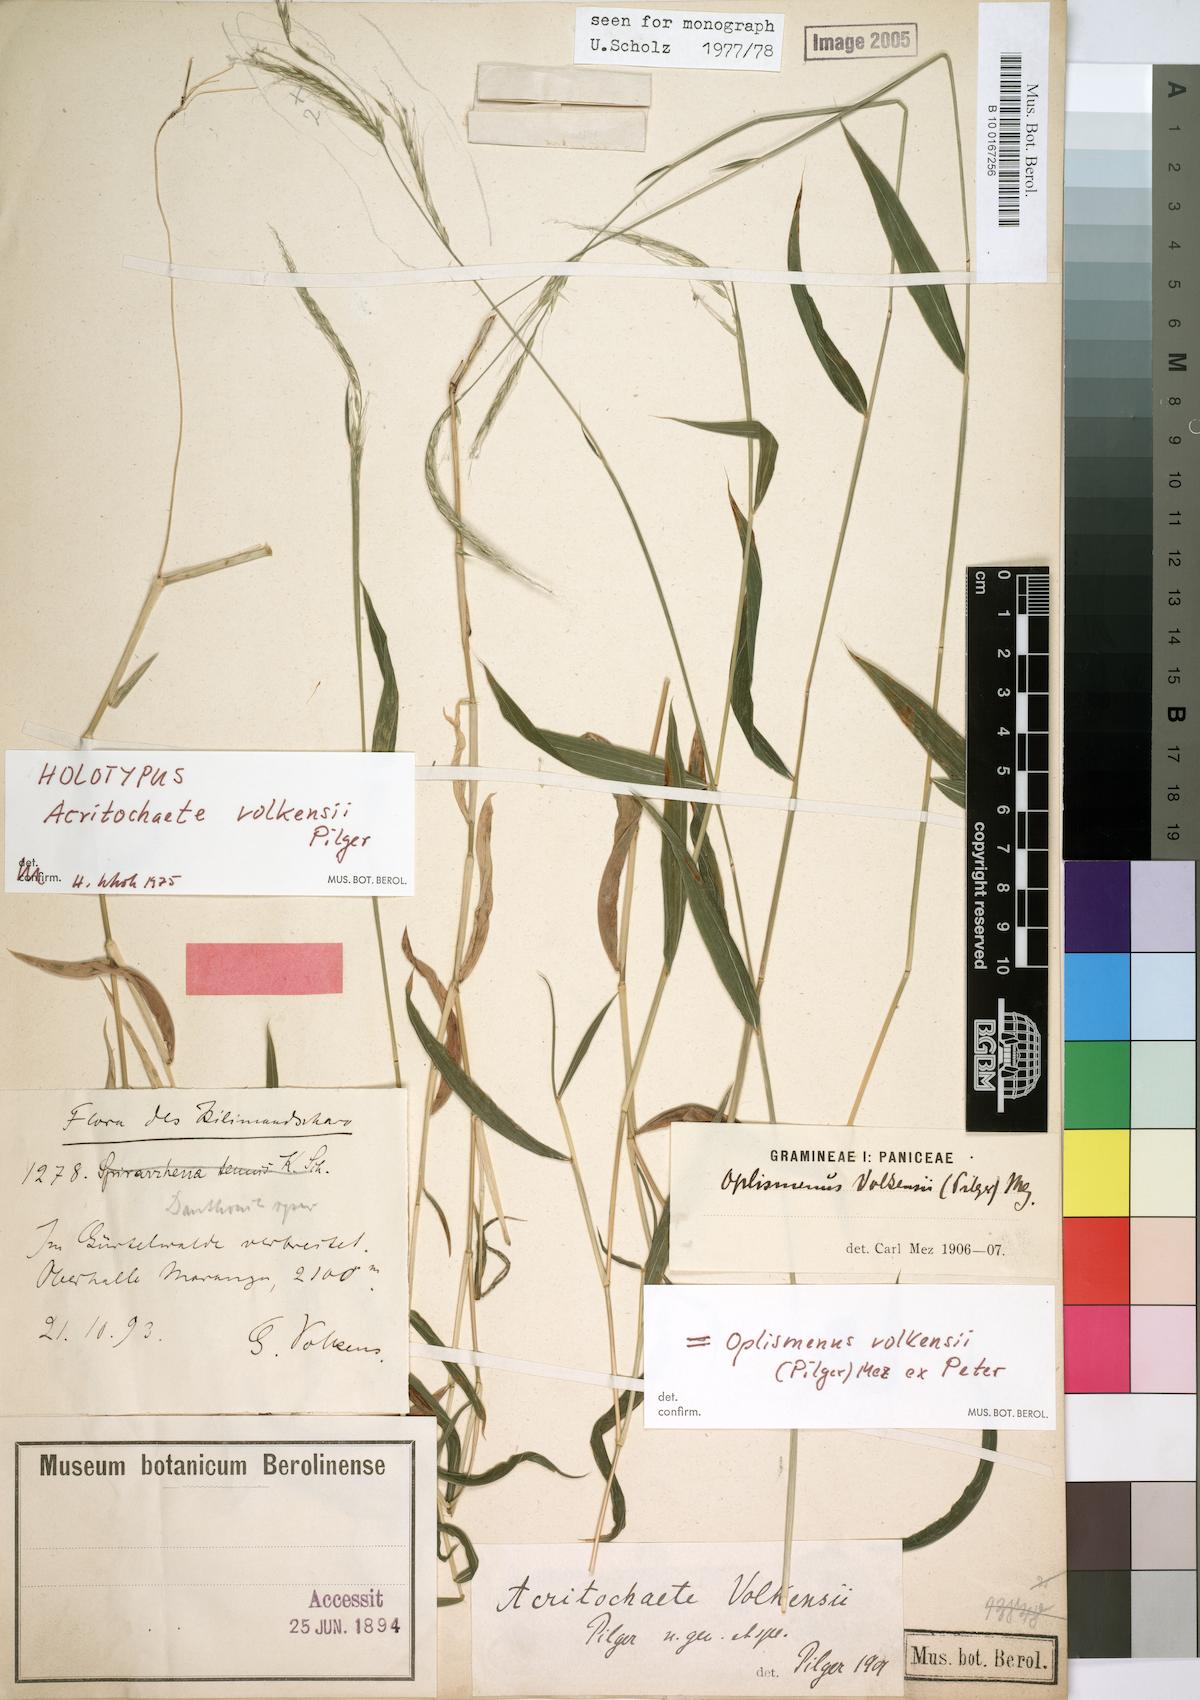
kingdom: Plantae
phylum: Tracheophyta
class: Liliopsida
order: Poales
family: Poaceae
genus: Acritochaete
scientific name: Acritochaete volkensii
